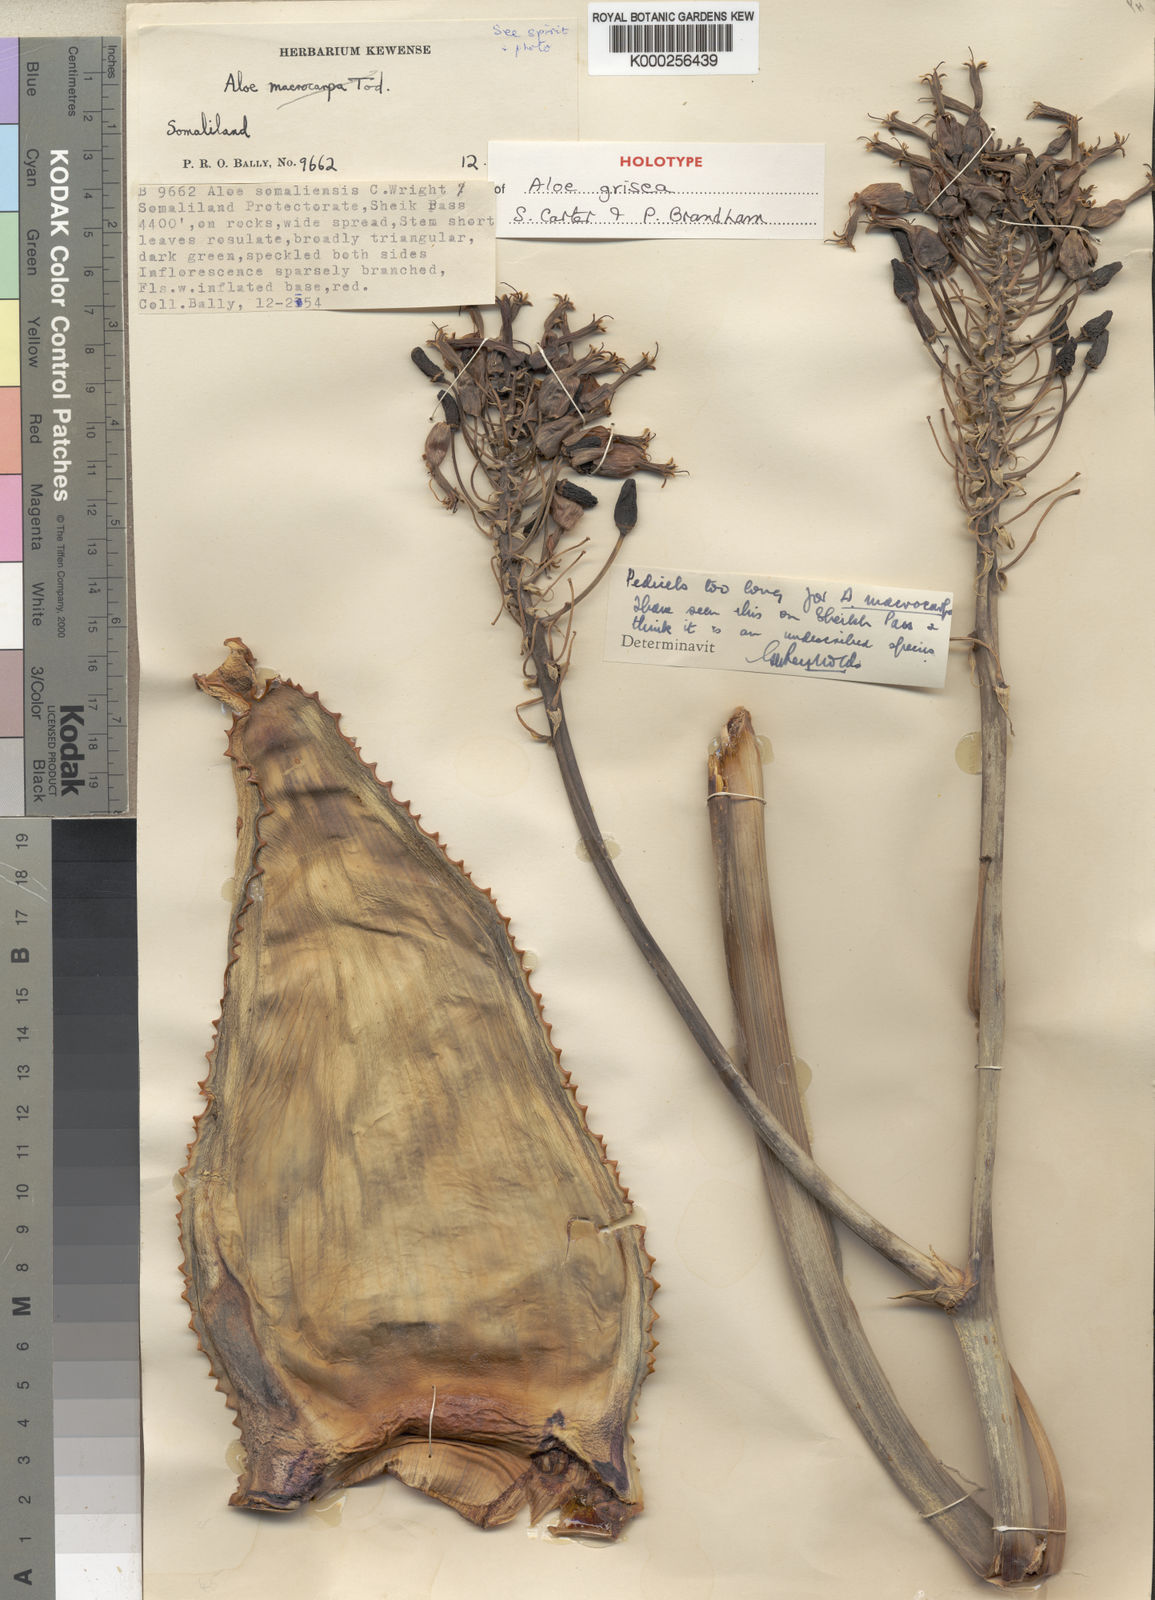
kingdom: Plantae
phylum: Tracheophyta
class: Liliopsida
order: Asparagales
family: Asphodelaceae
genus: Aloe
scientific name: Aloe grisea
